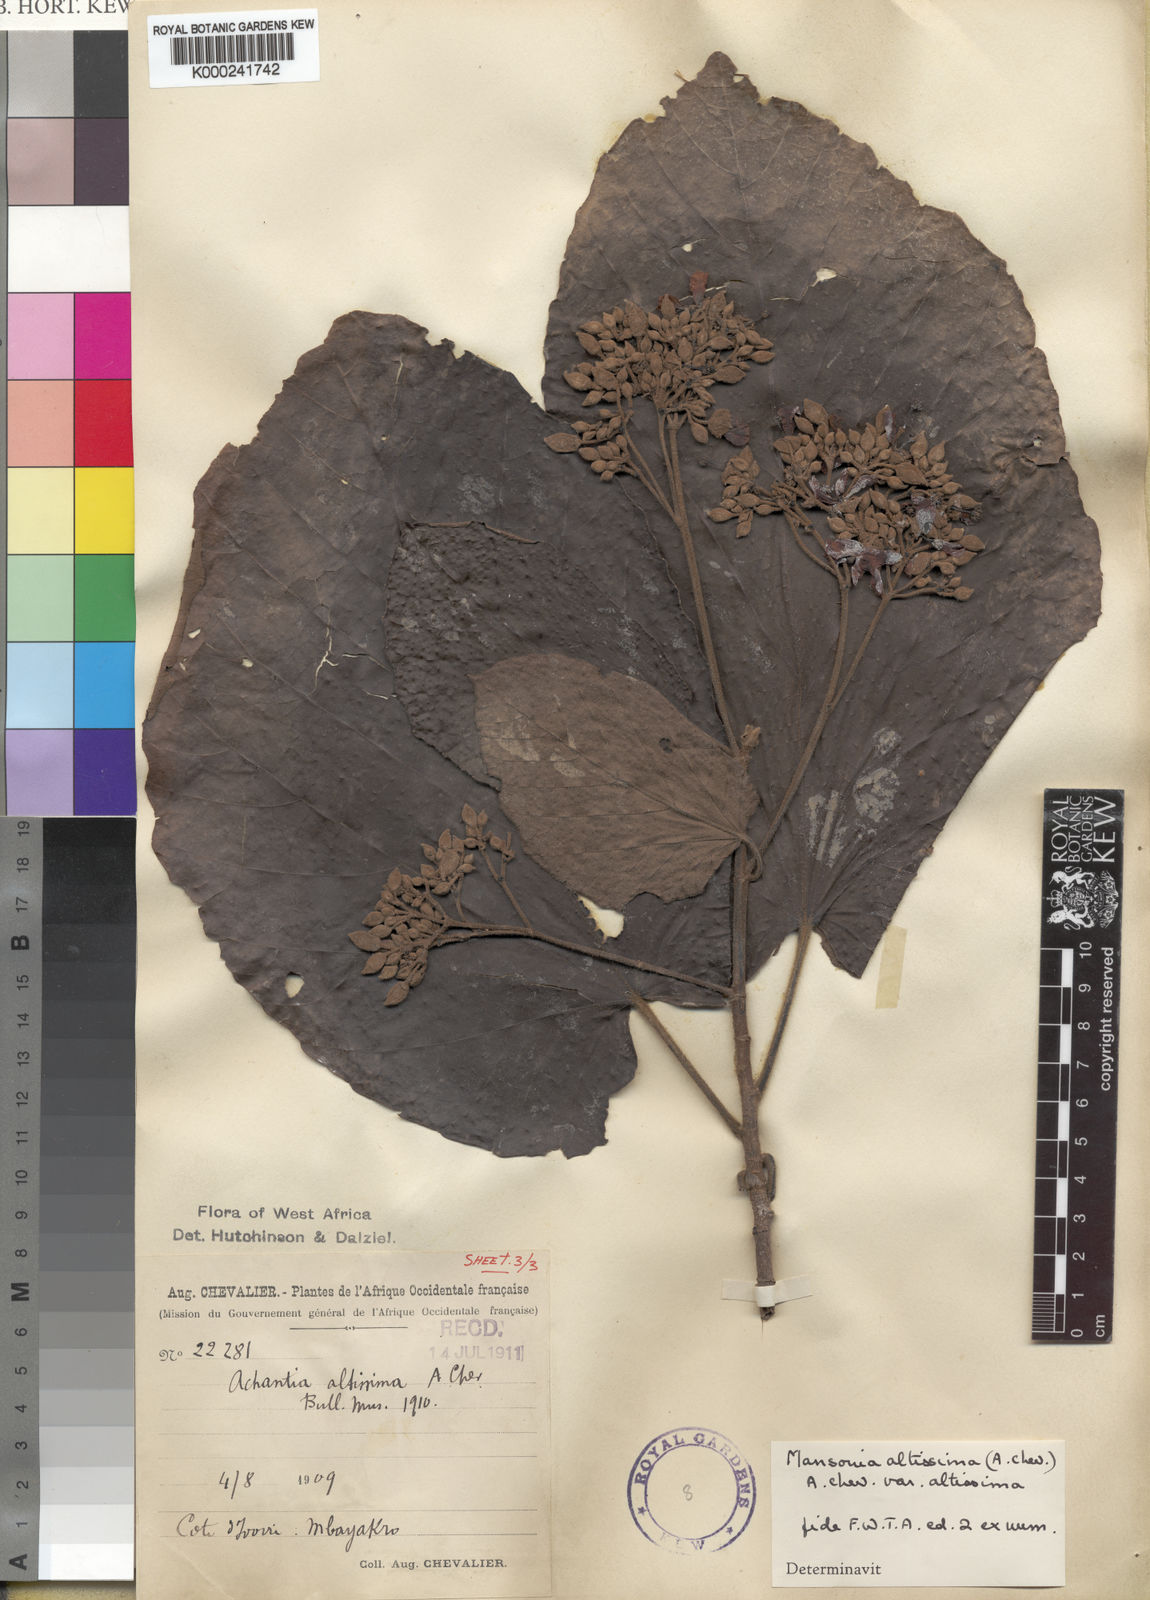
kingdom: Plantae
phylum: Tracheophyta
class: Magnoliopsida
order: Malvales
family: Malvaceae
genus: Mansonia
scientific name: Mansonia altissima
